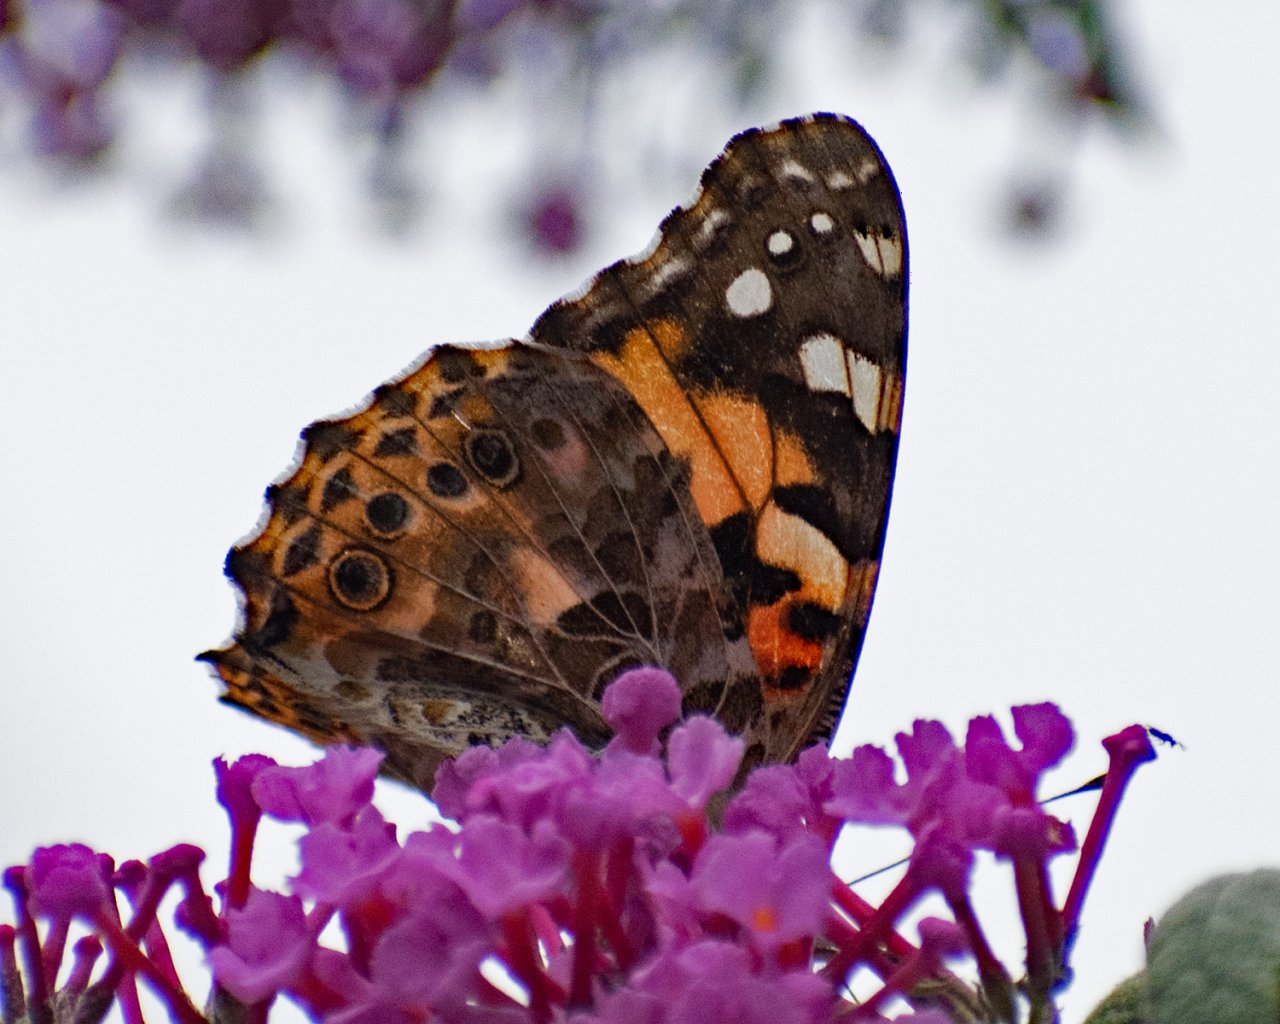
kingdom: Animalia
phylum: Arthropoda
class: Insecta
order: Lepidoptera
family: Nymphalidae
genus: Vanessa
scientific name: Vanessa cardui
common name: Painted Lady
